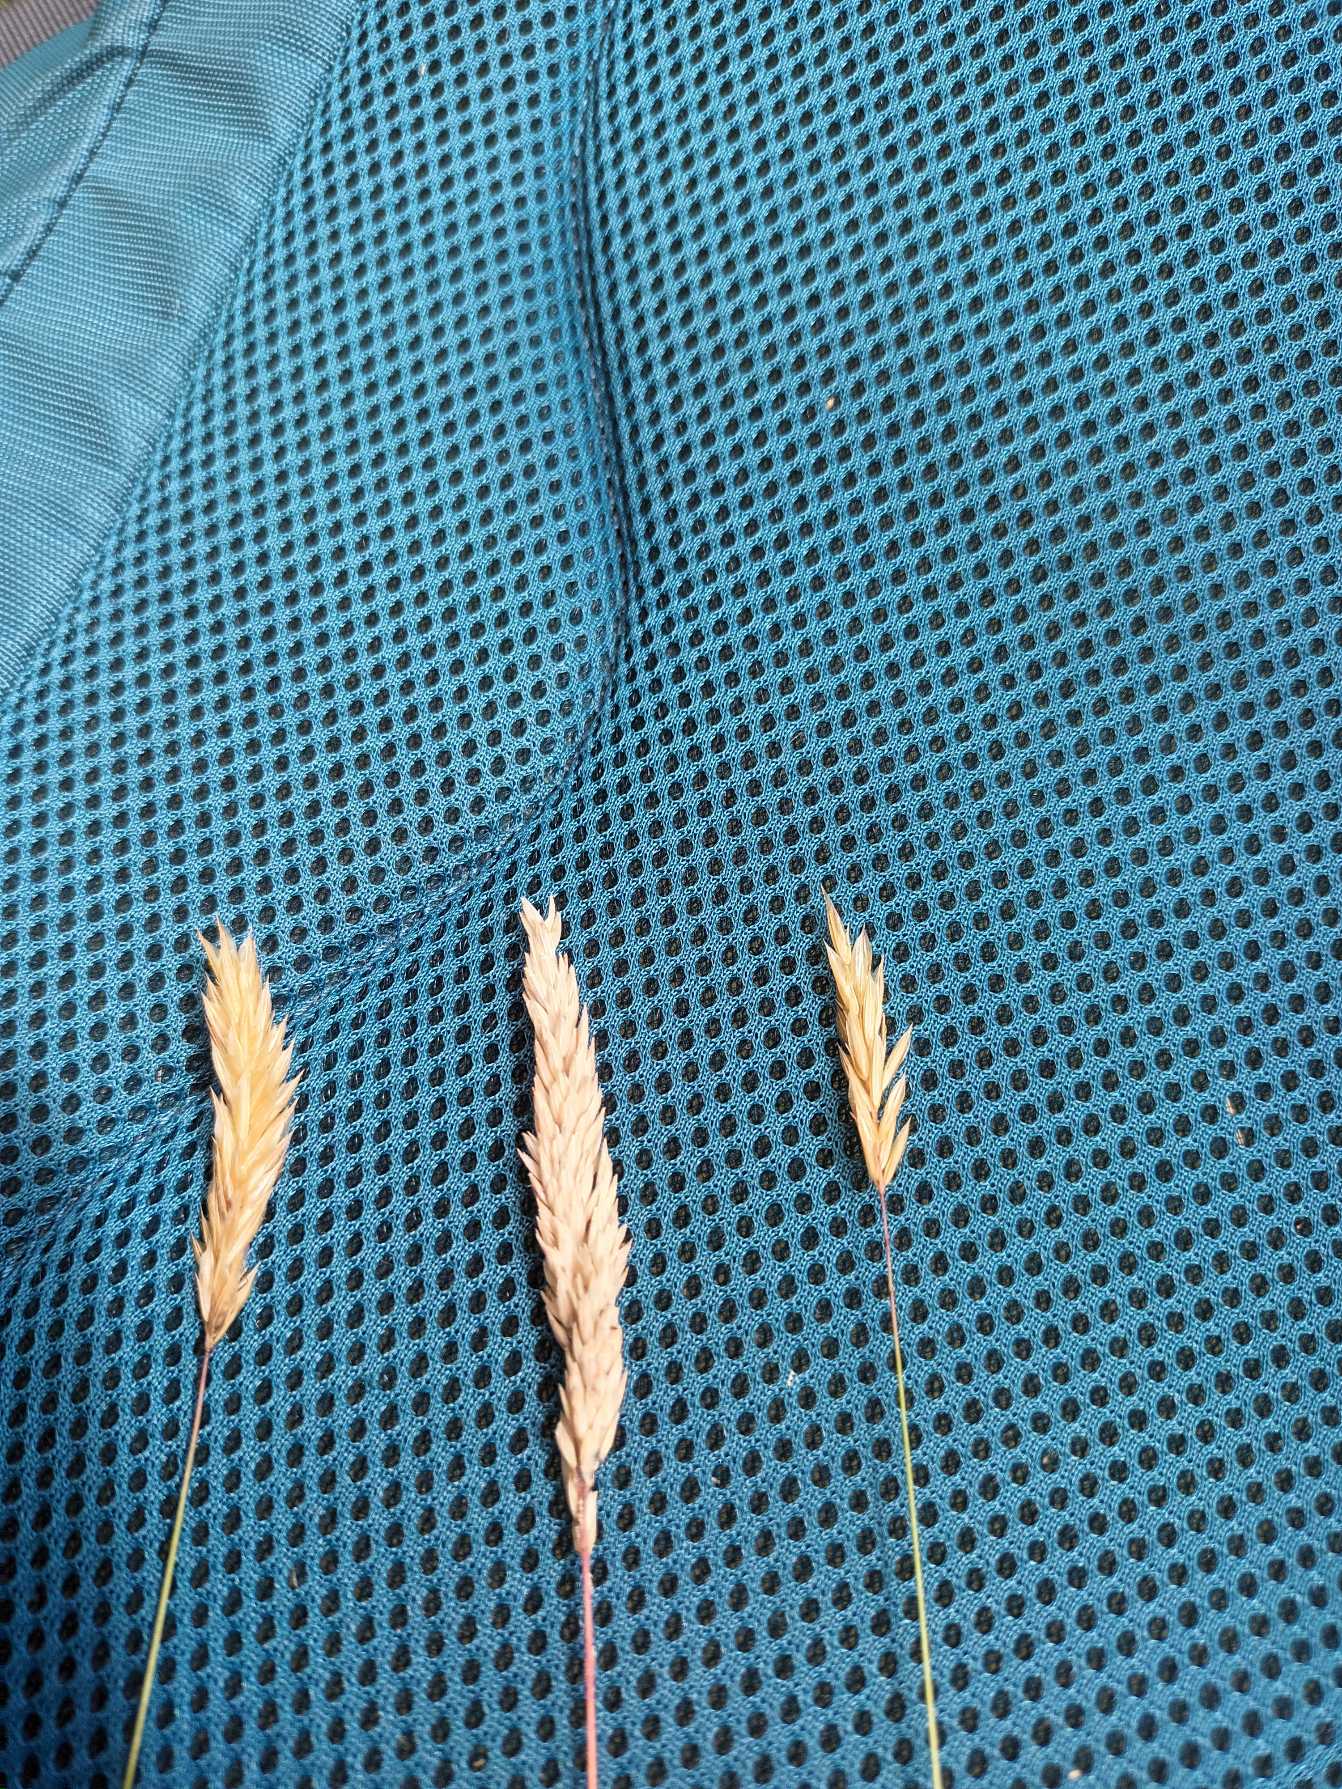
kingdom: Plantae
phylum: Tracheophyta
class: Liliopsida
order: Poales
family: Poaceae
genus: Anthoxanthum
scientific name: Anthoxanthum odoratum
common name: Vellugtende gulaks
